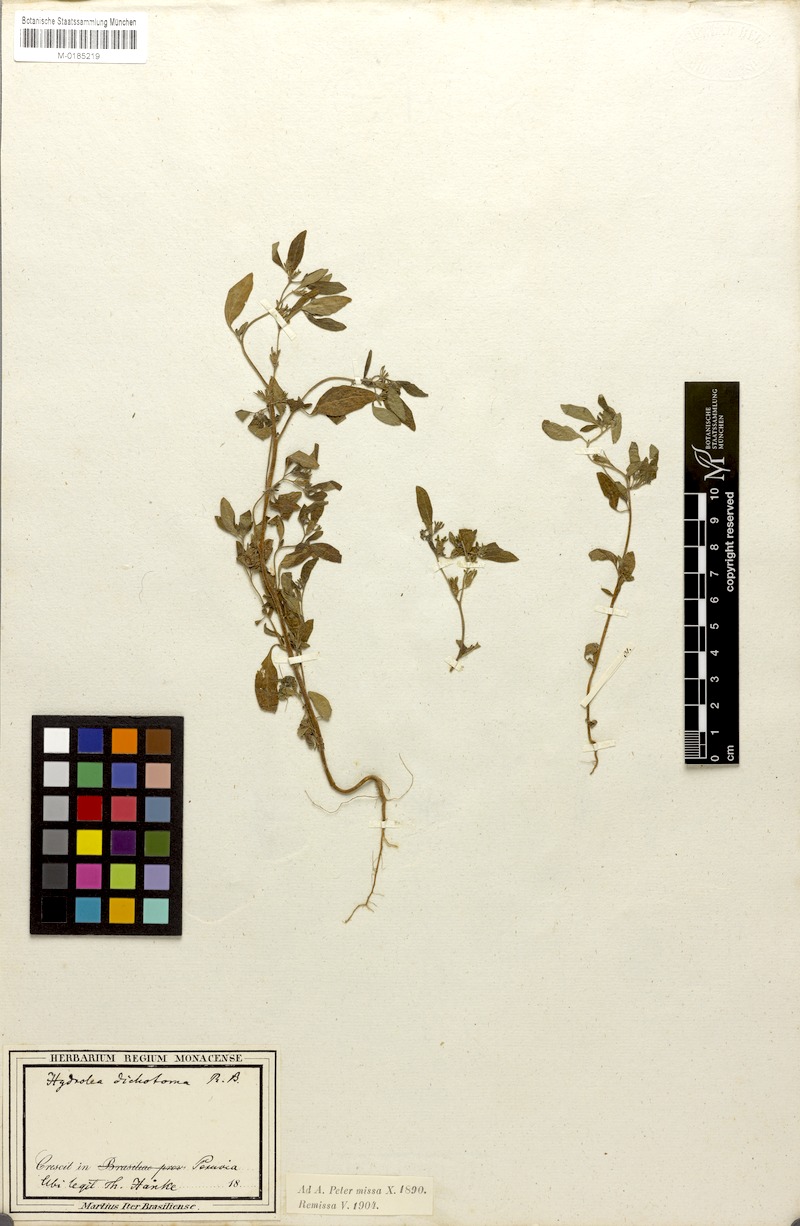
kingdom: Plantae
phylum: Tracheophyta
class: Magnoliopsida
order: Boraginales
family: Namaceae
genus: Nama
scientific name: Nama dichotoma
